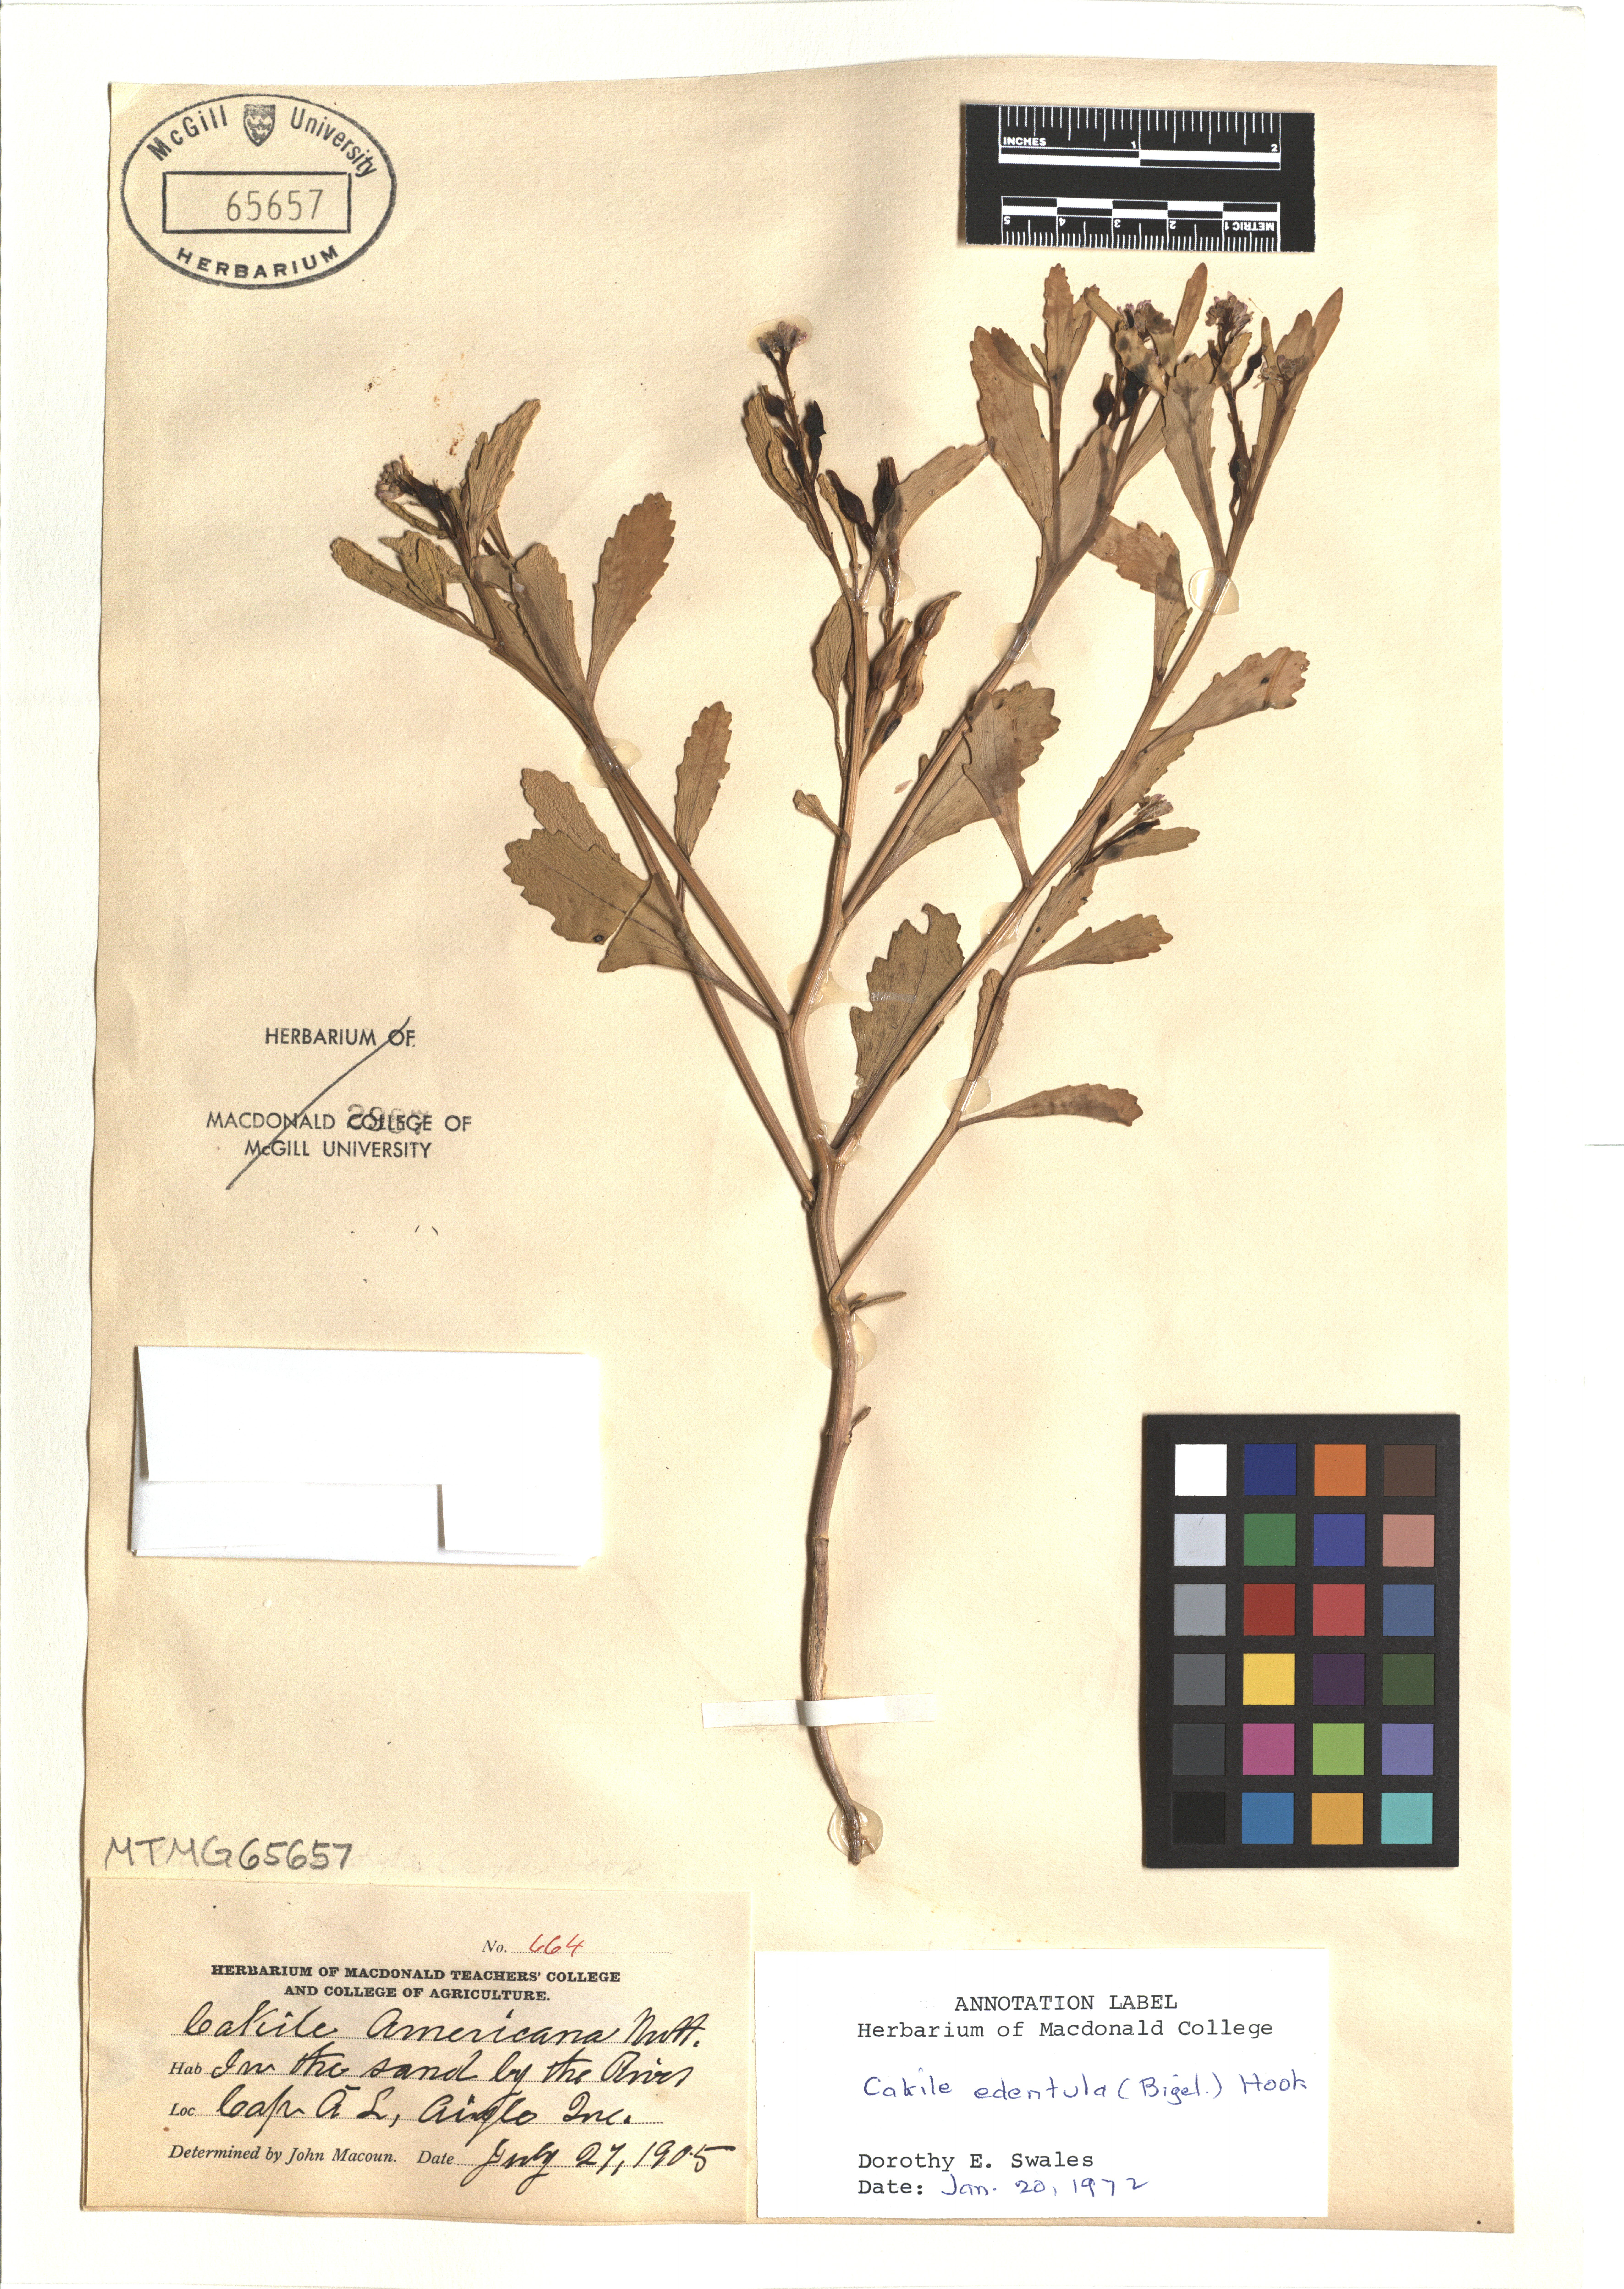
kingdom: Plantae
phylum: Tracheophyta
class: Magnoliopsida
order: Brassicales
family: Brassicaceae
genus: Cakile
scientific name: Cakile edentula
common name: American sea rocket
